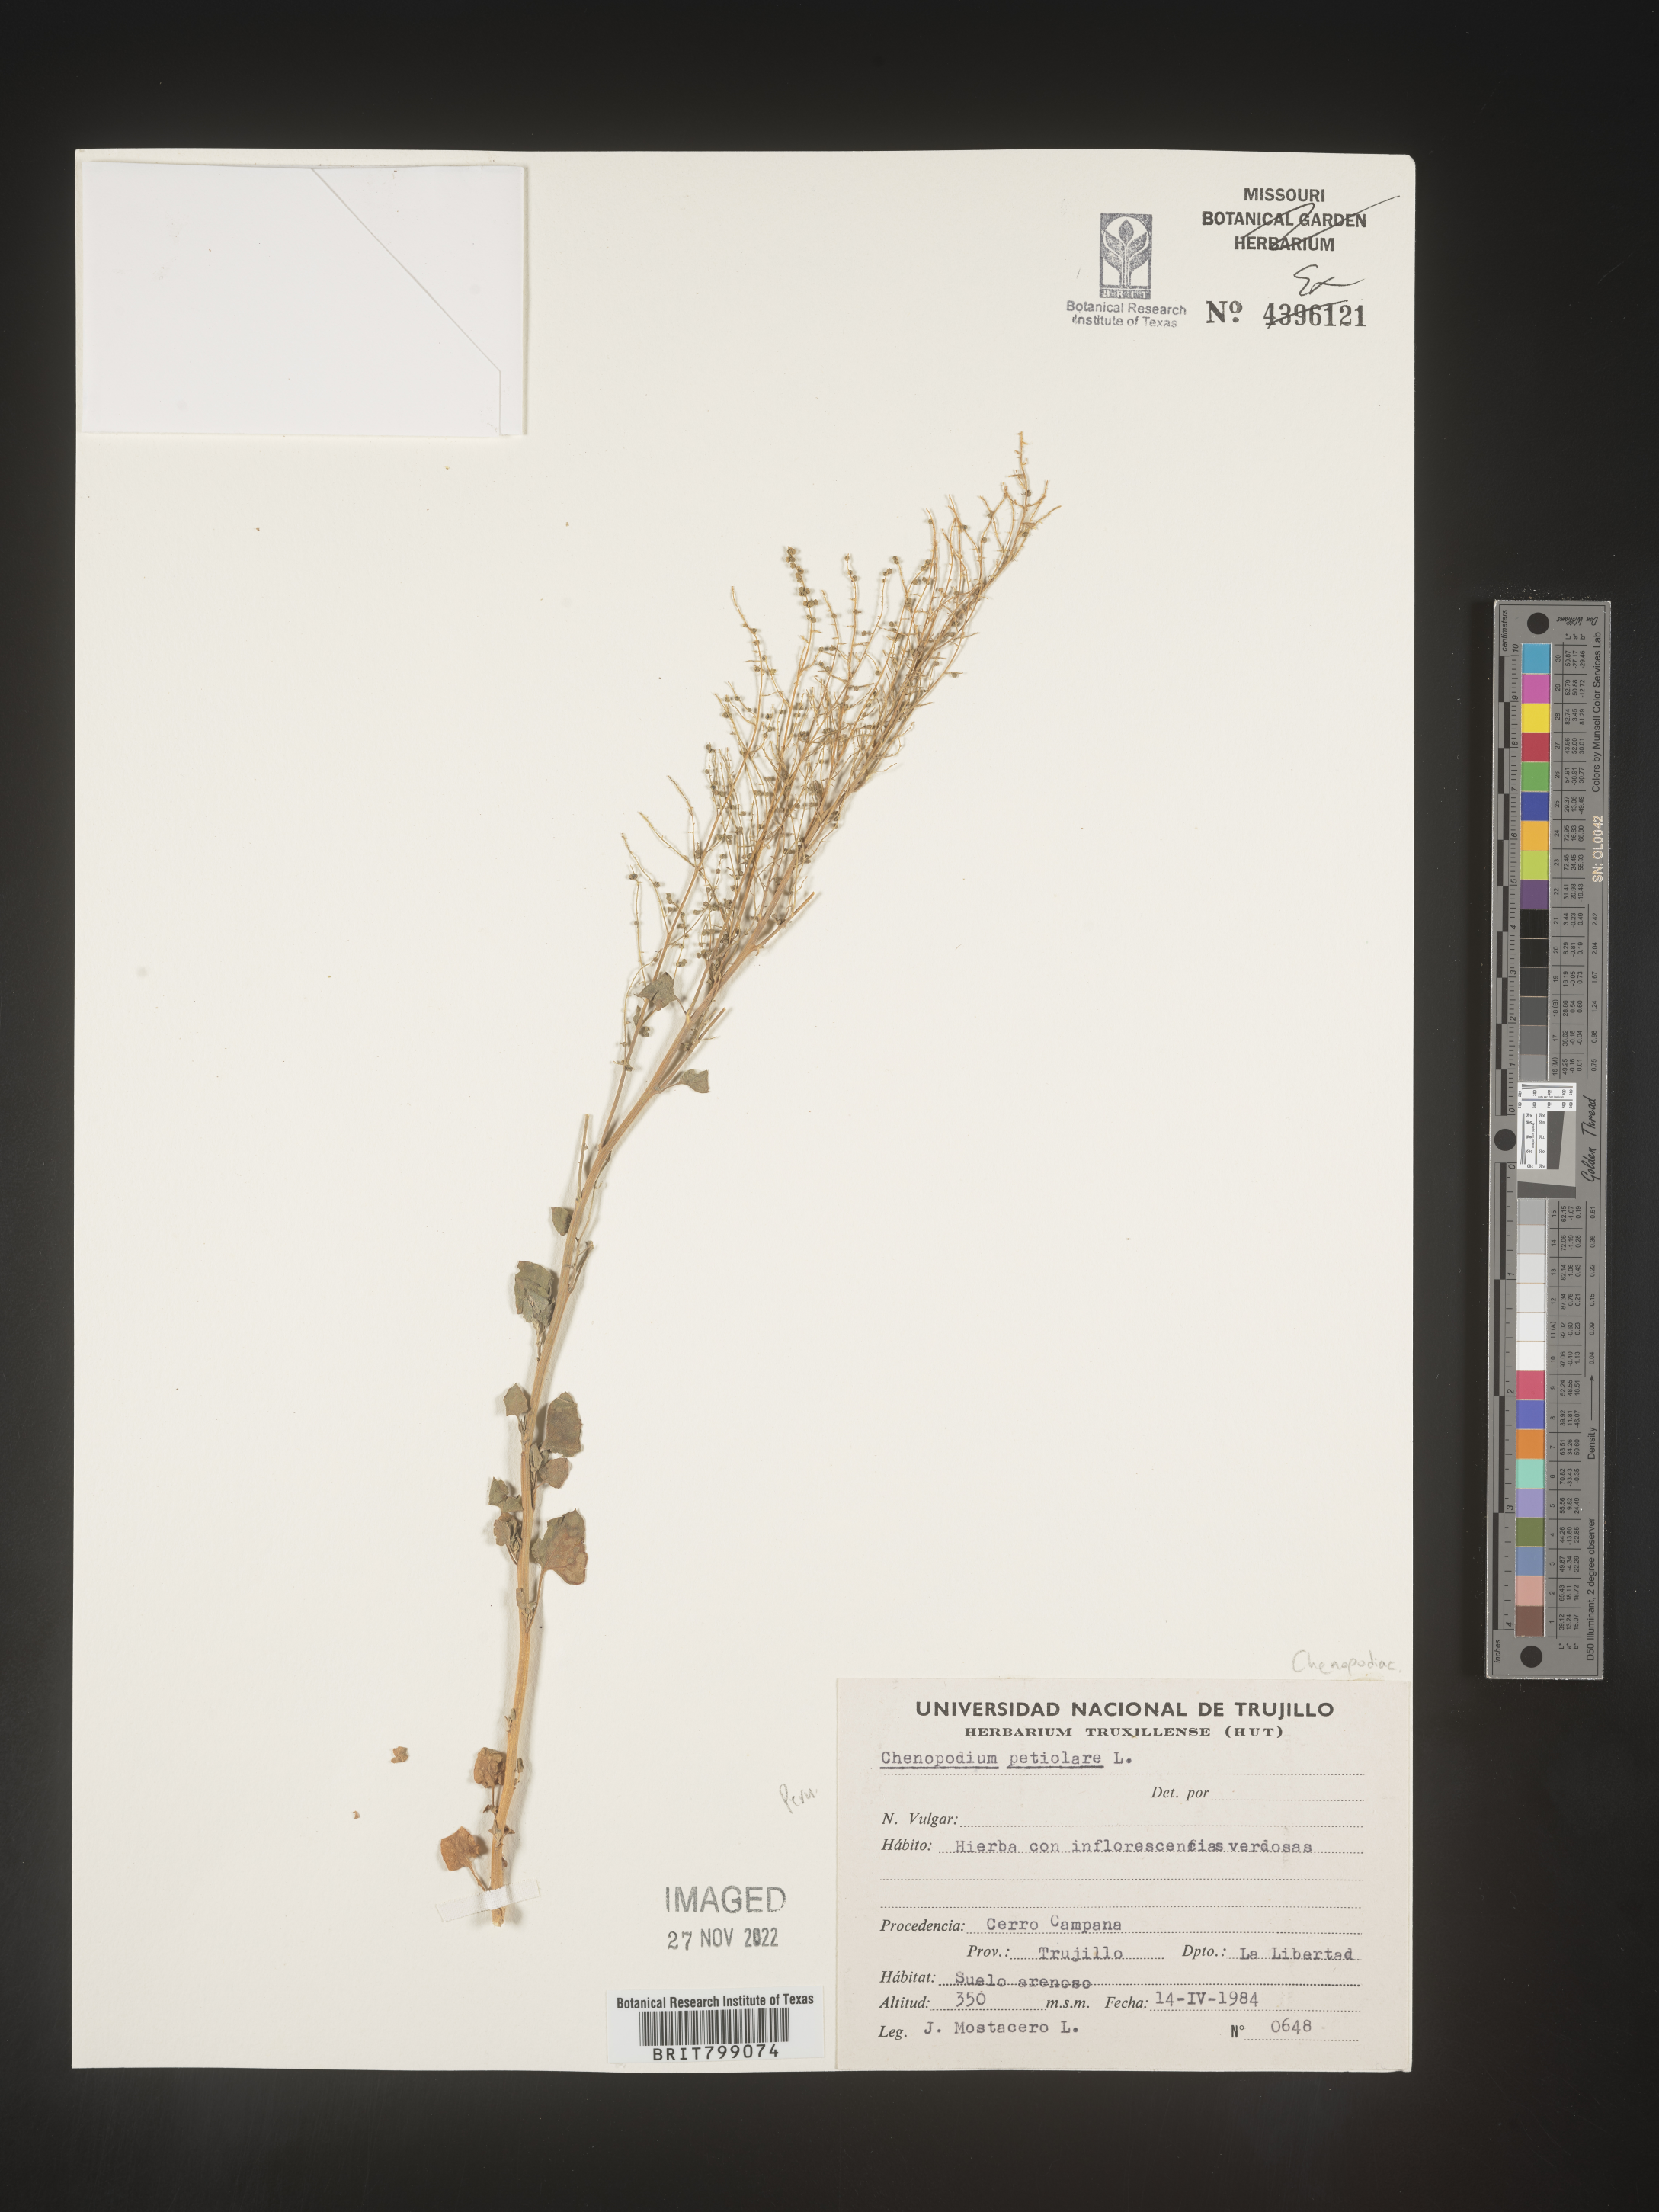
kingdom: Plantae
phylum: Tracheophyta
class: Magnoliopsida
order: Caryophyllales
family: Amaranthaceae
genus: Chenopodium
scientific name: Chenopodium
